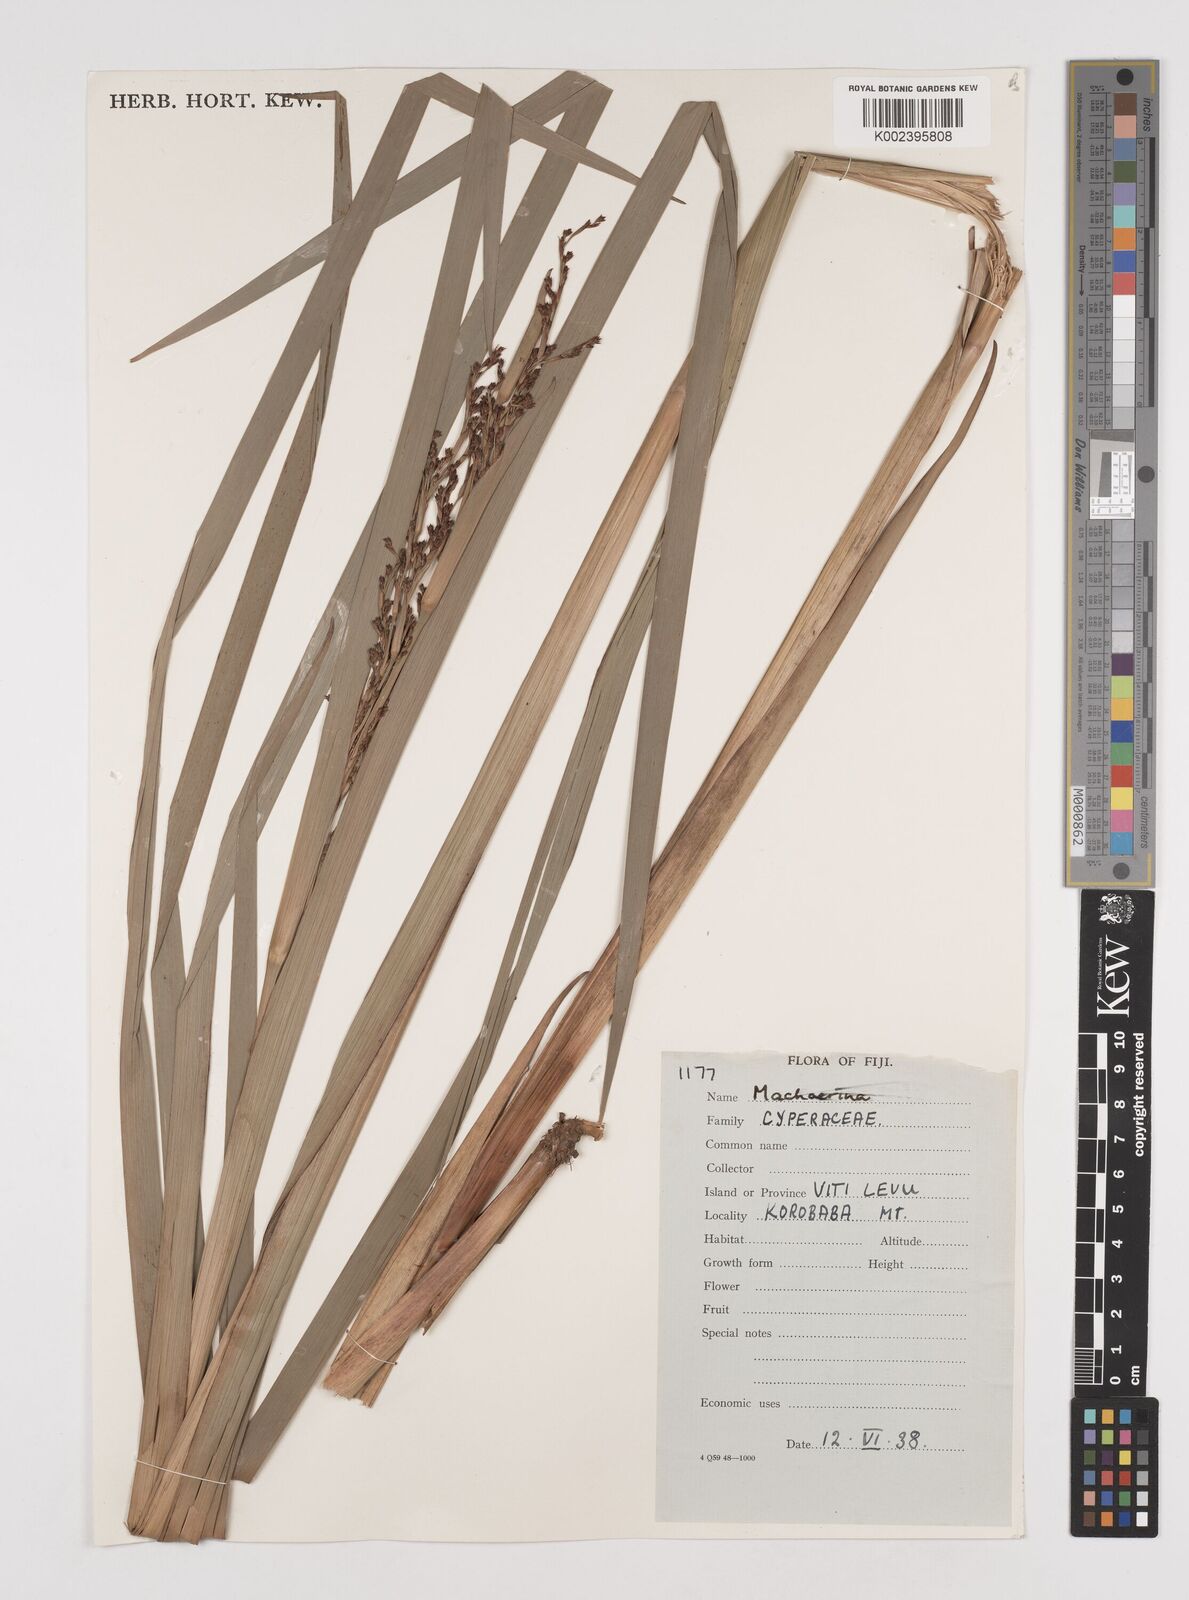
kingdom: Plantae
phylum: Tracheophyta
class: Liliopsida
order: Poales
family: Cyperaceae
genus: Machaerina
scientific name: Machaerina
